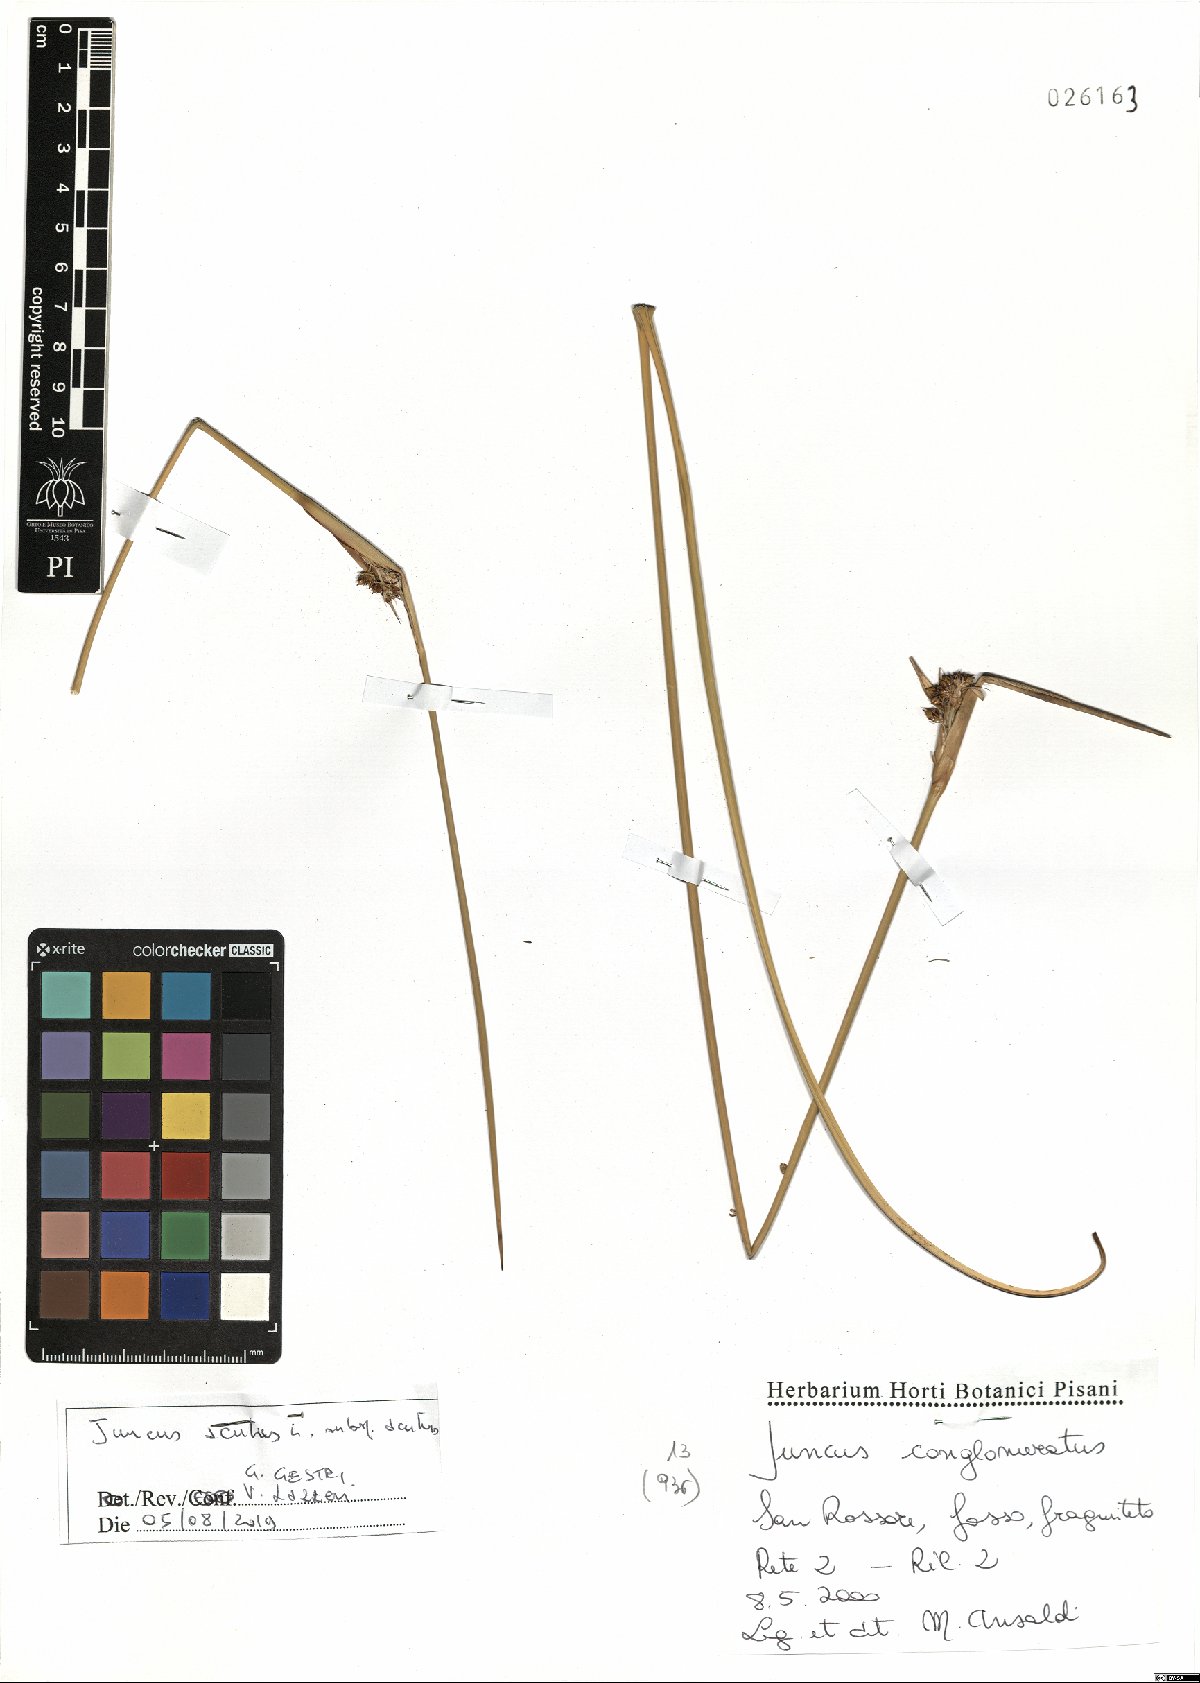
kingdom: Plantae
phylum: Tracheophyta
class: Liliopsida
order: Poales
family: Juncaceae
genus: Juncus
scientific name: Juncus acutus
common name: Sharp rush
